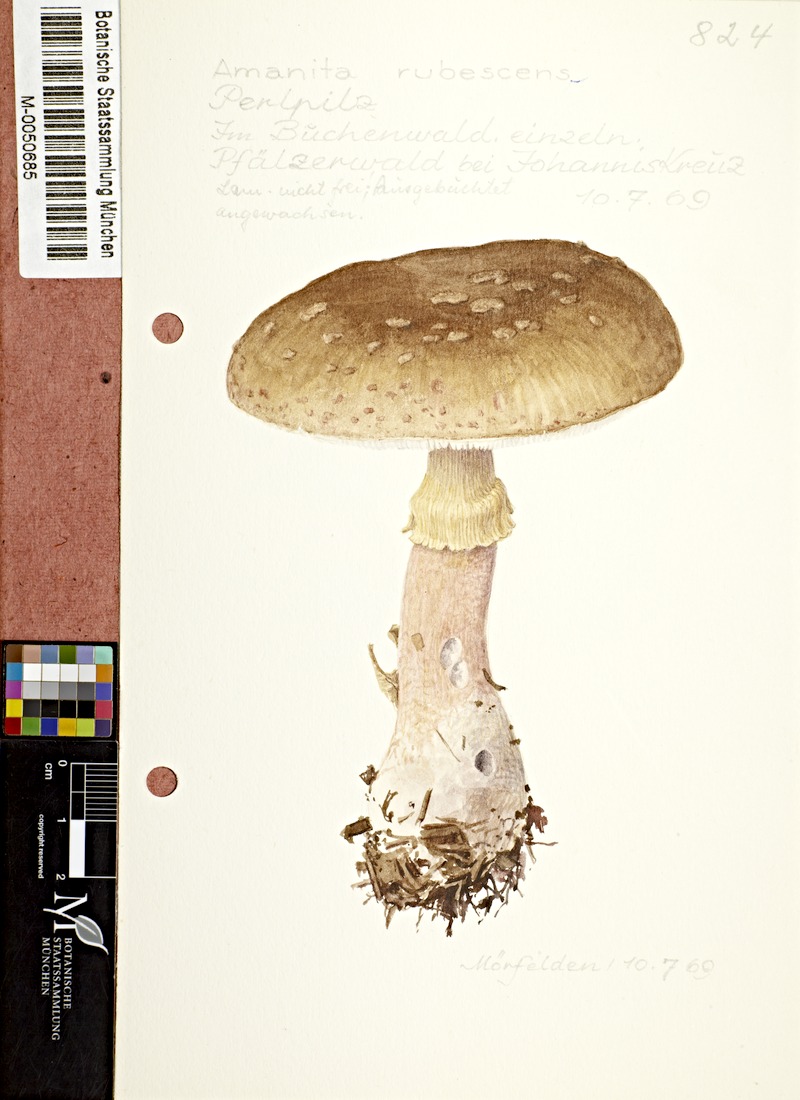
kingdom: Fungi
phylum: Basidiomycota
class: Agaricomycetes
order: Agaricales
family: Amanitaceae
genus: Amanita
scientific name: Amanita rubescens
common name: Blusher
